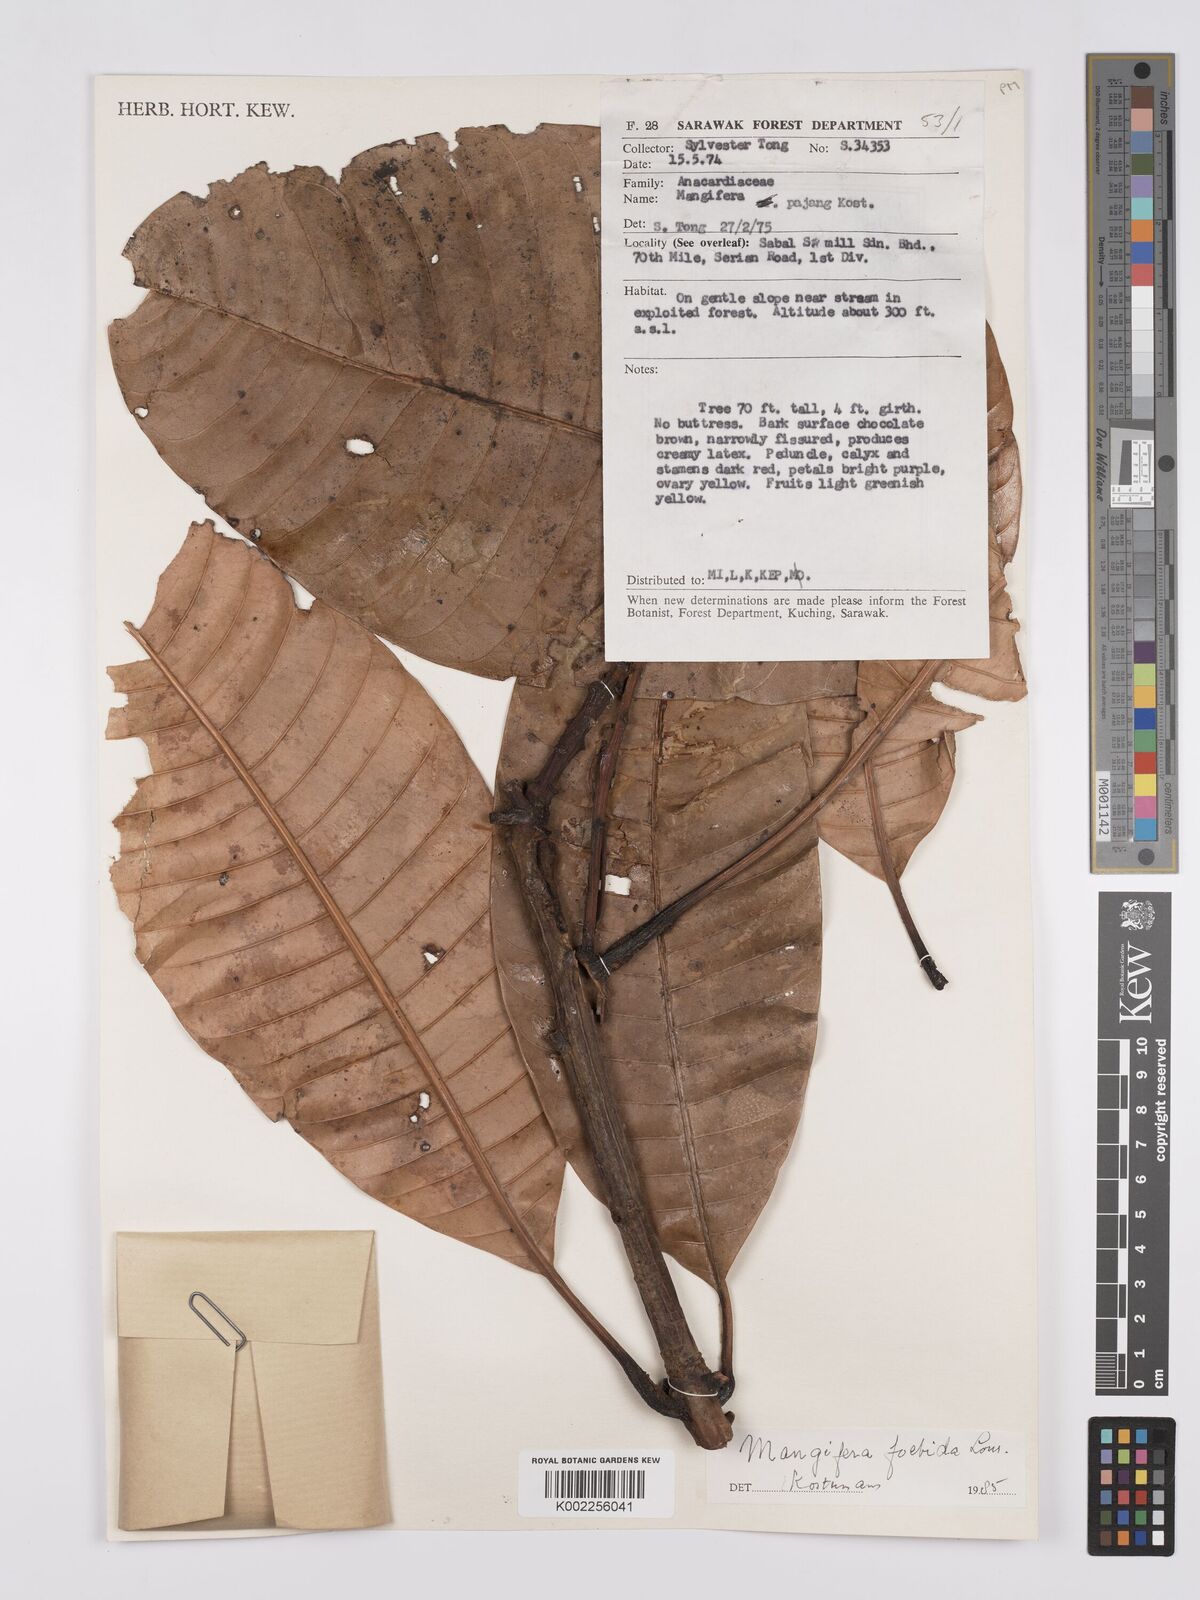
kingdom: Plantae
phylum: Tracheophyta
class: Magnoliopsida
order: Sapindales
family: Anacardiaceae
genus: Mangifera
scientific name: Mangifera pajang
